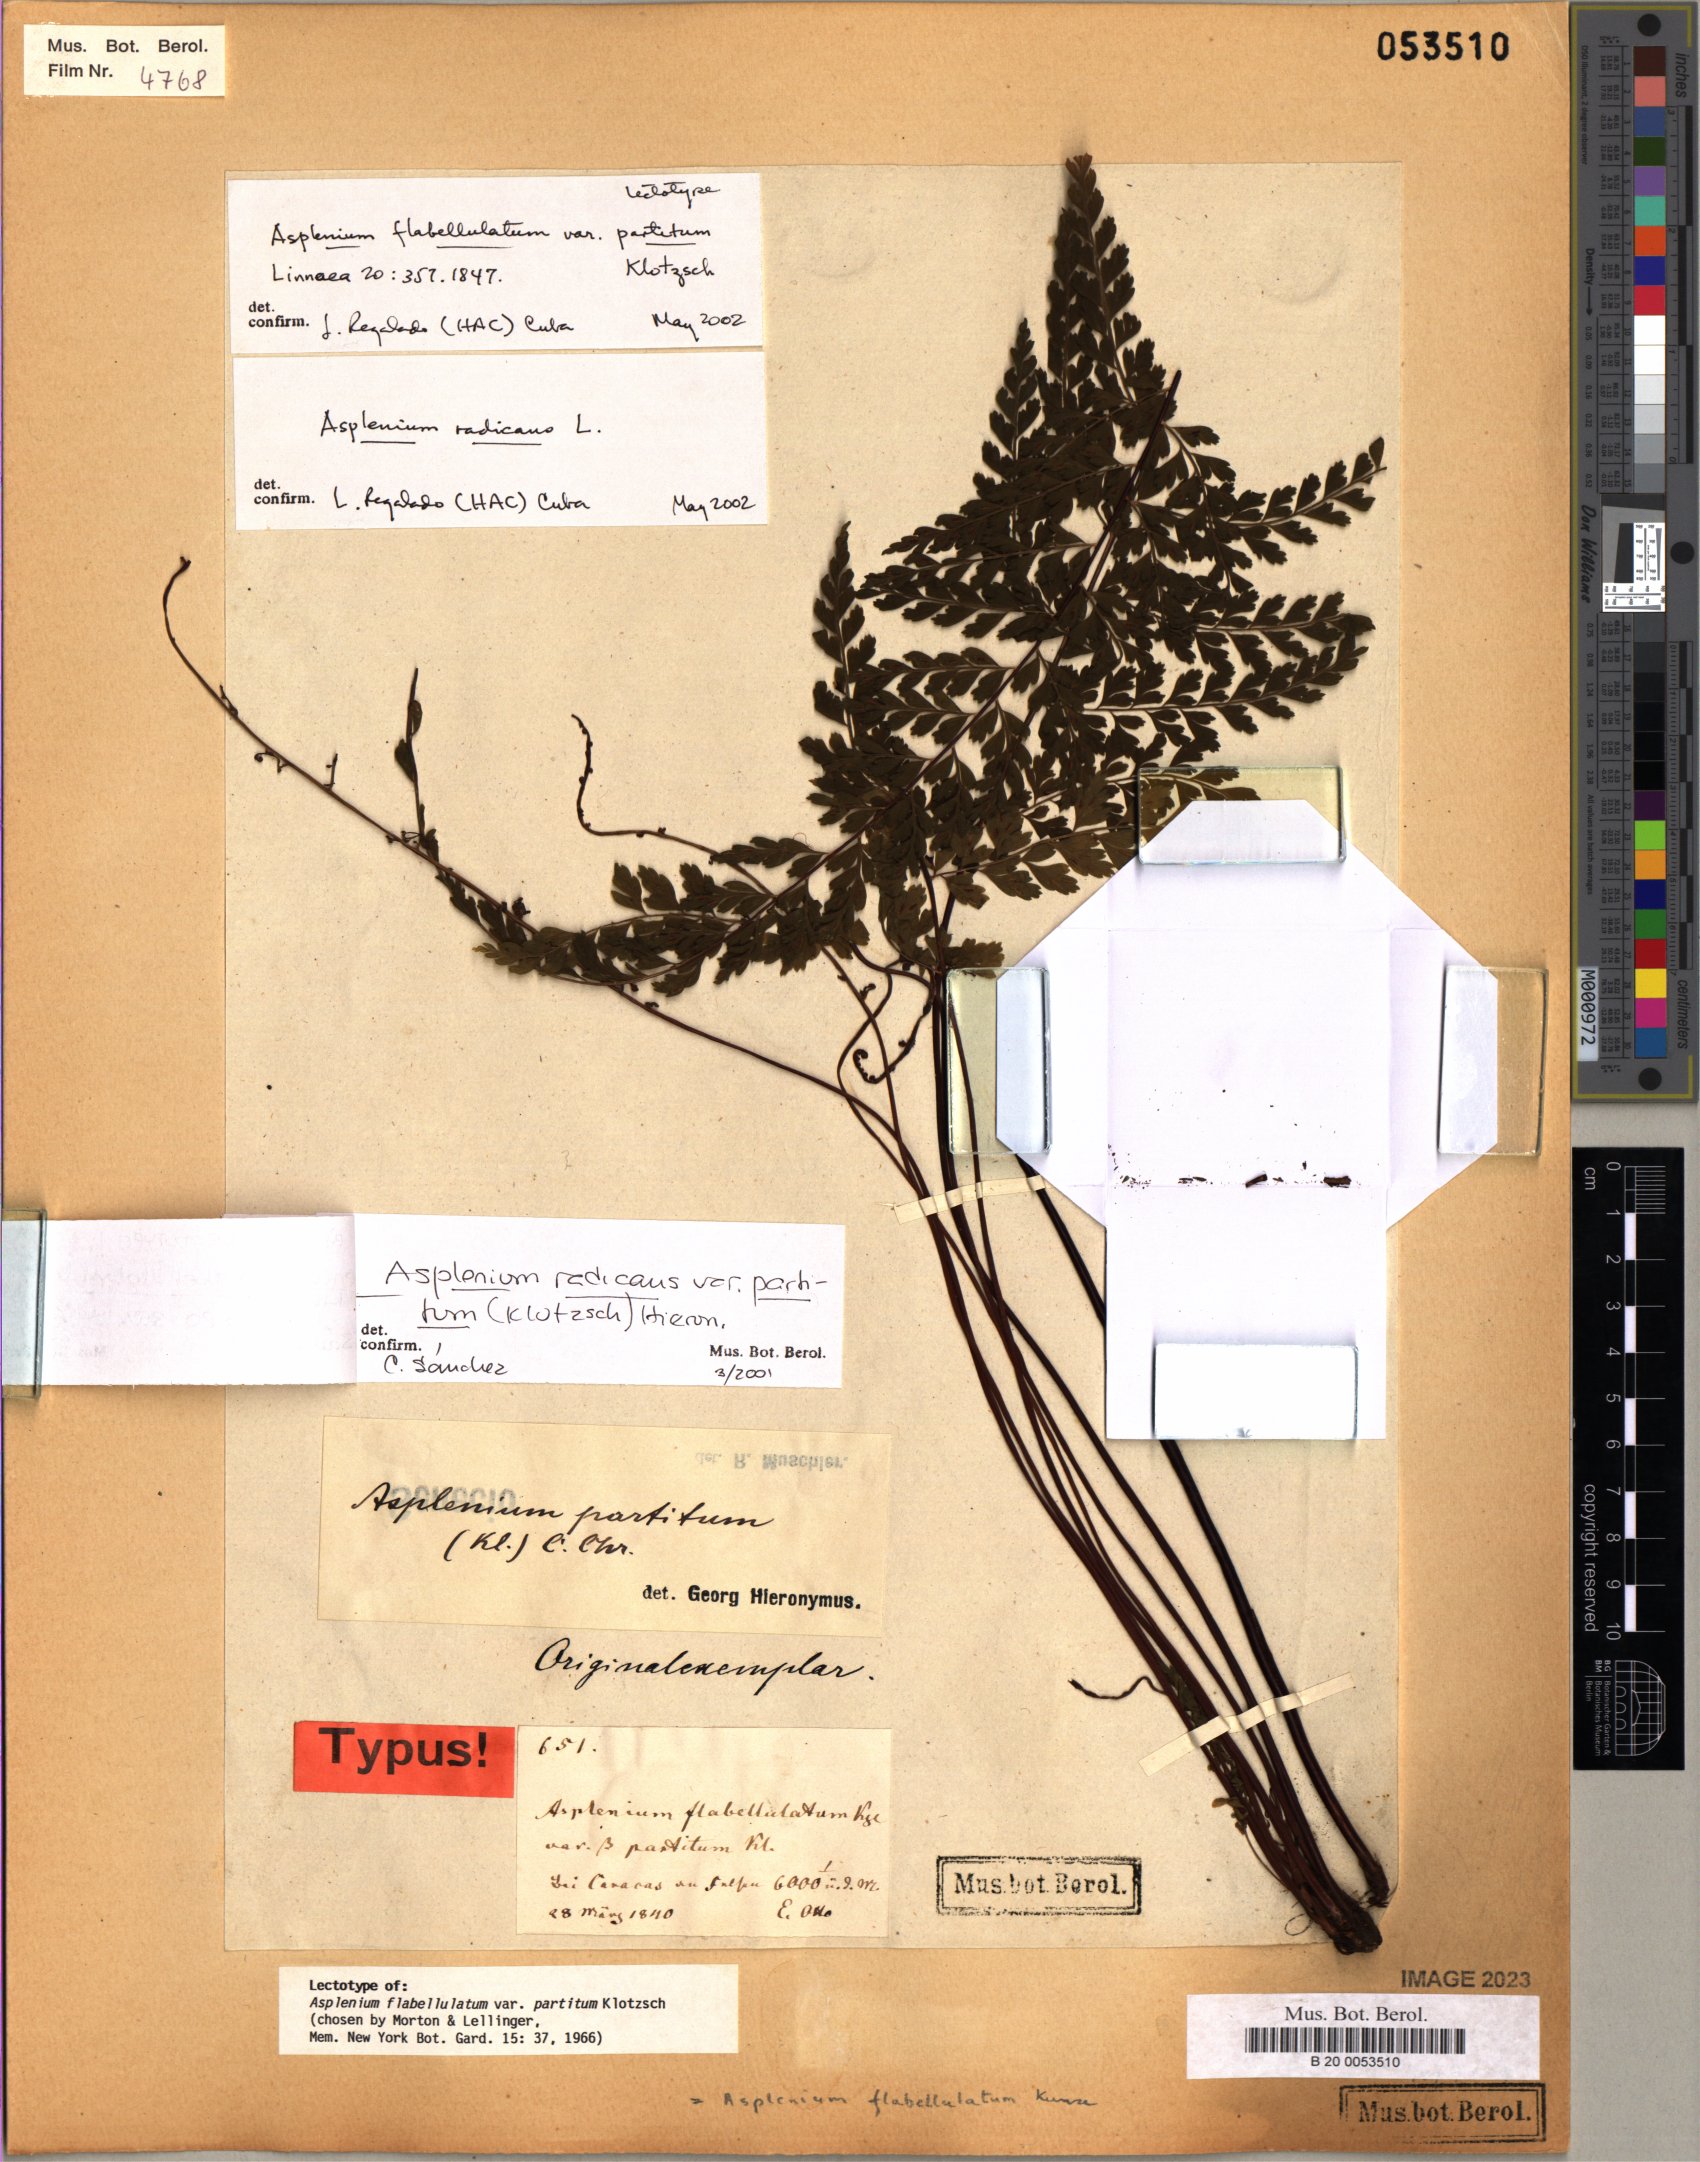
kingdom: Plantae
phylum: Tracheophyta
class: Polypodiopsida
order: Polypodiales
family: Aspleniaceae
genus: Asplenium
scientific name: Asplenium flabellulatum
